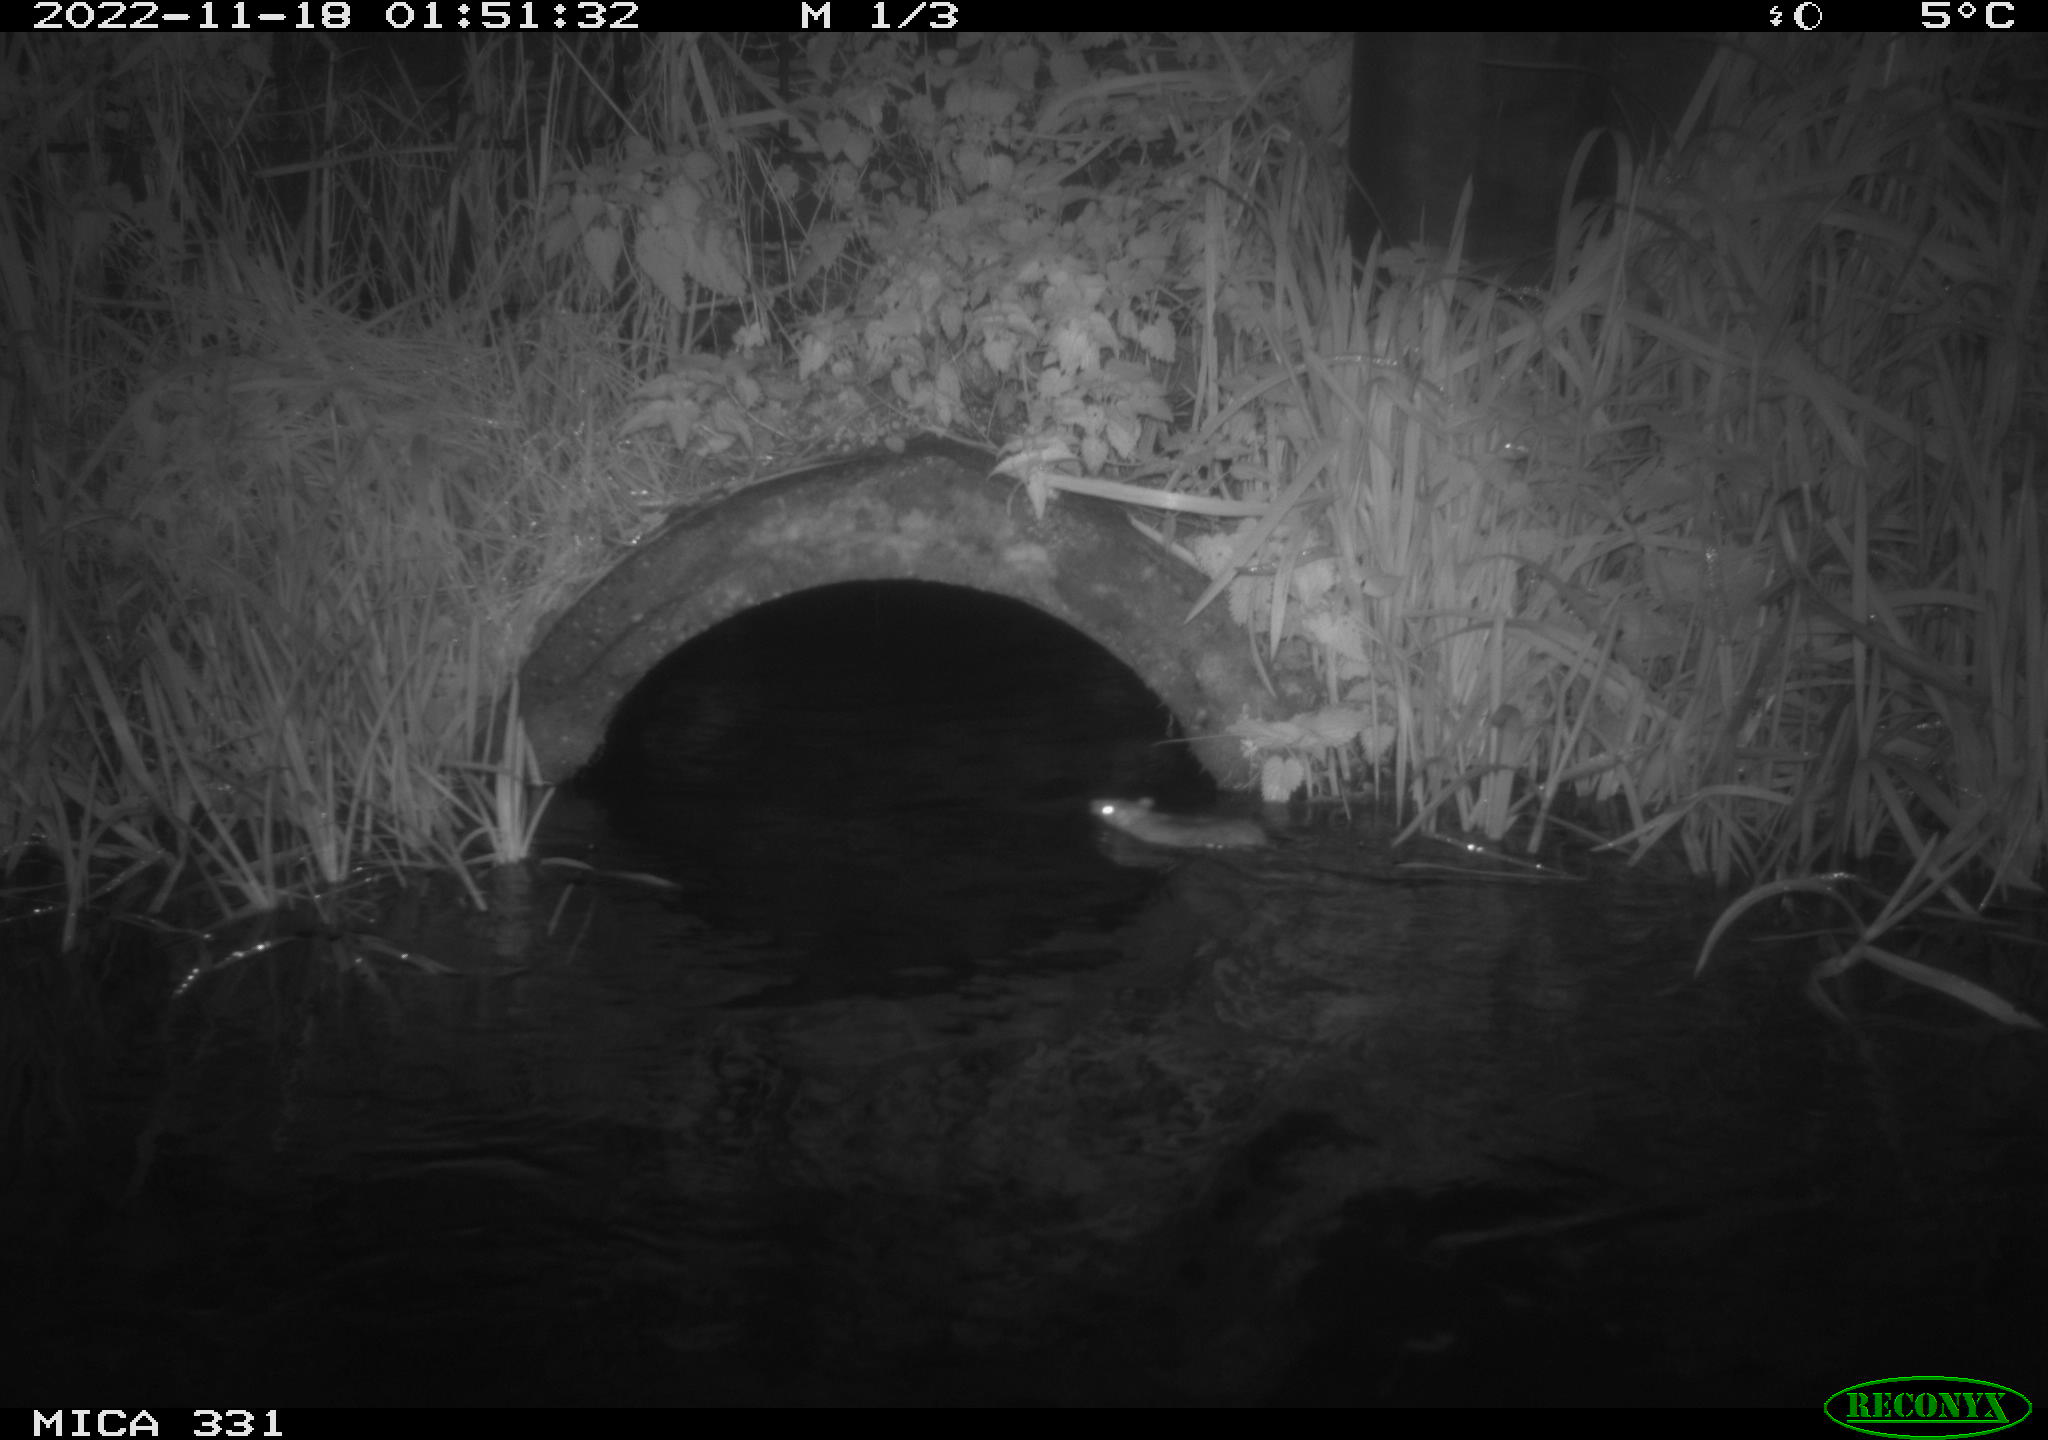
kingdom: Animalia
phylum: Chordata
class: Mammalia
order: Rodentia
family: Muridae
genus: Rattus
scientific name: Rattus norvegicus
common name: Brown rat
